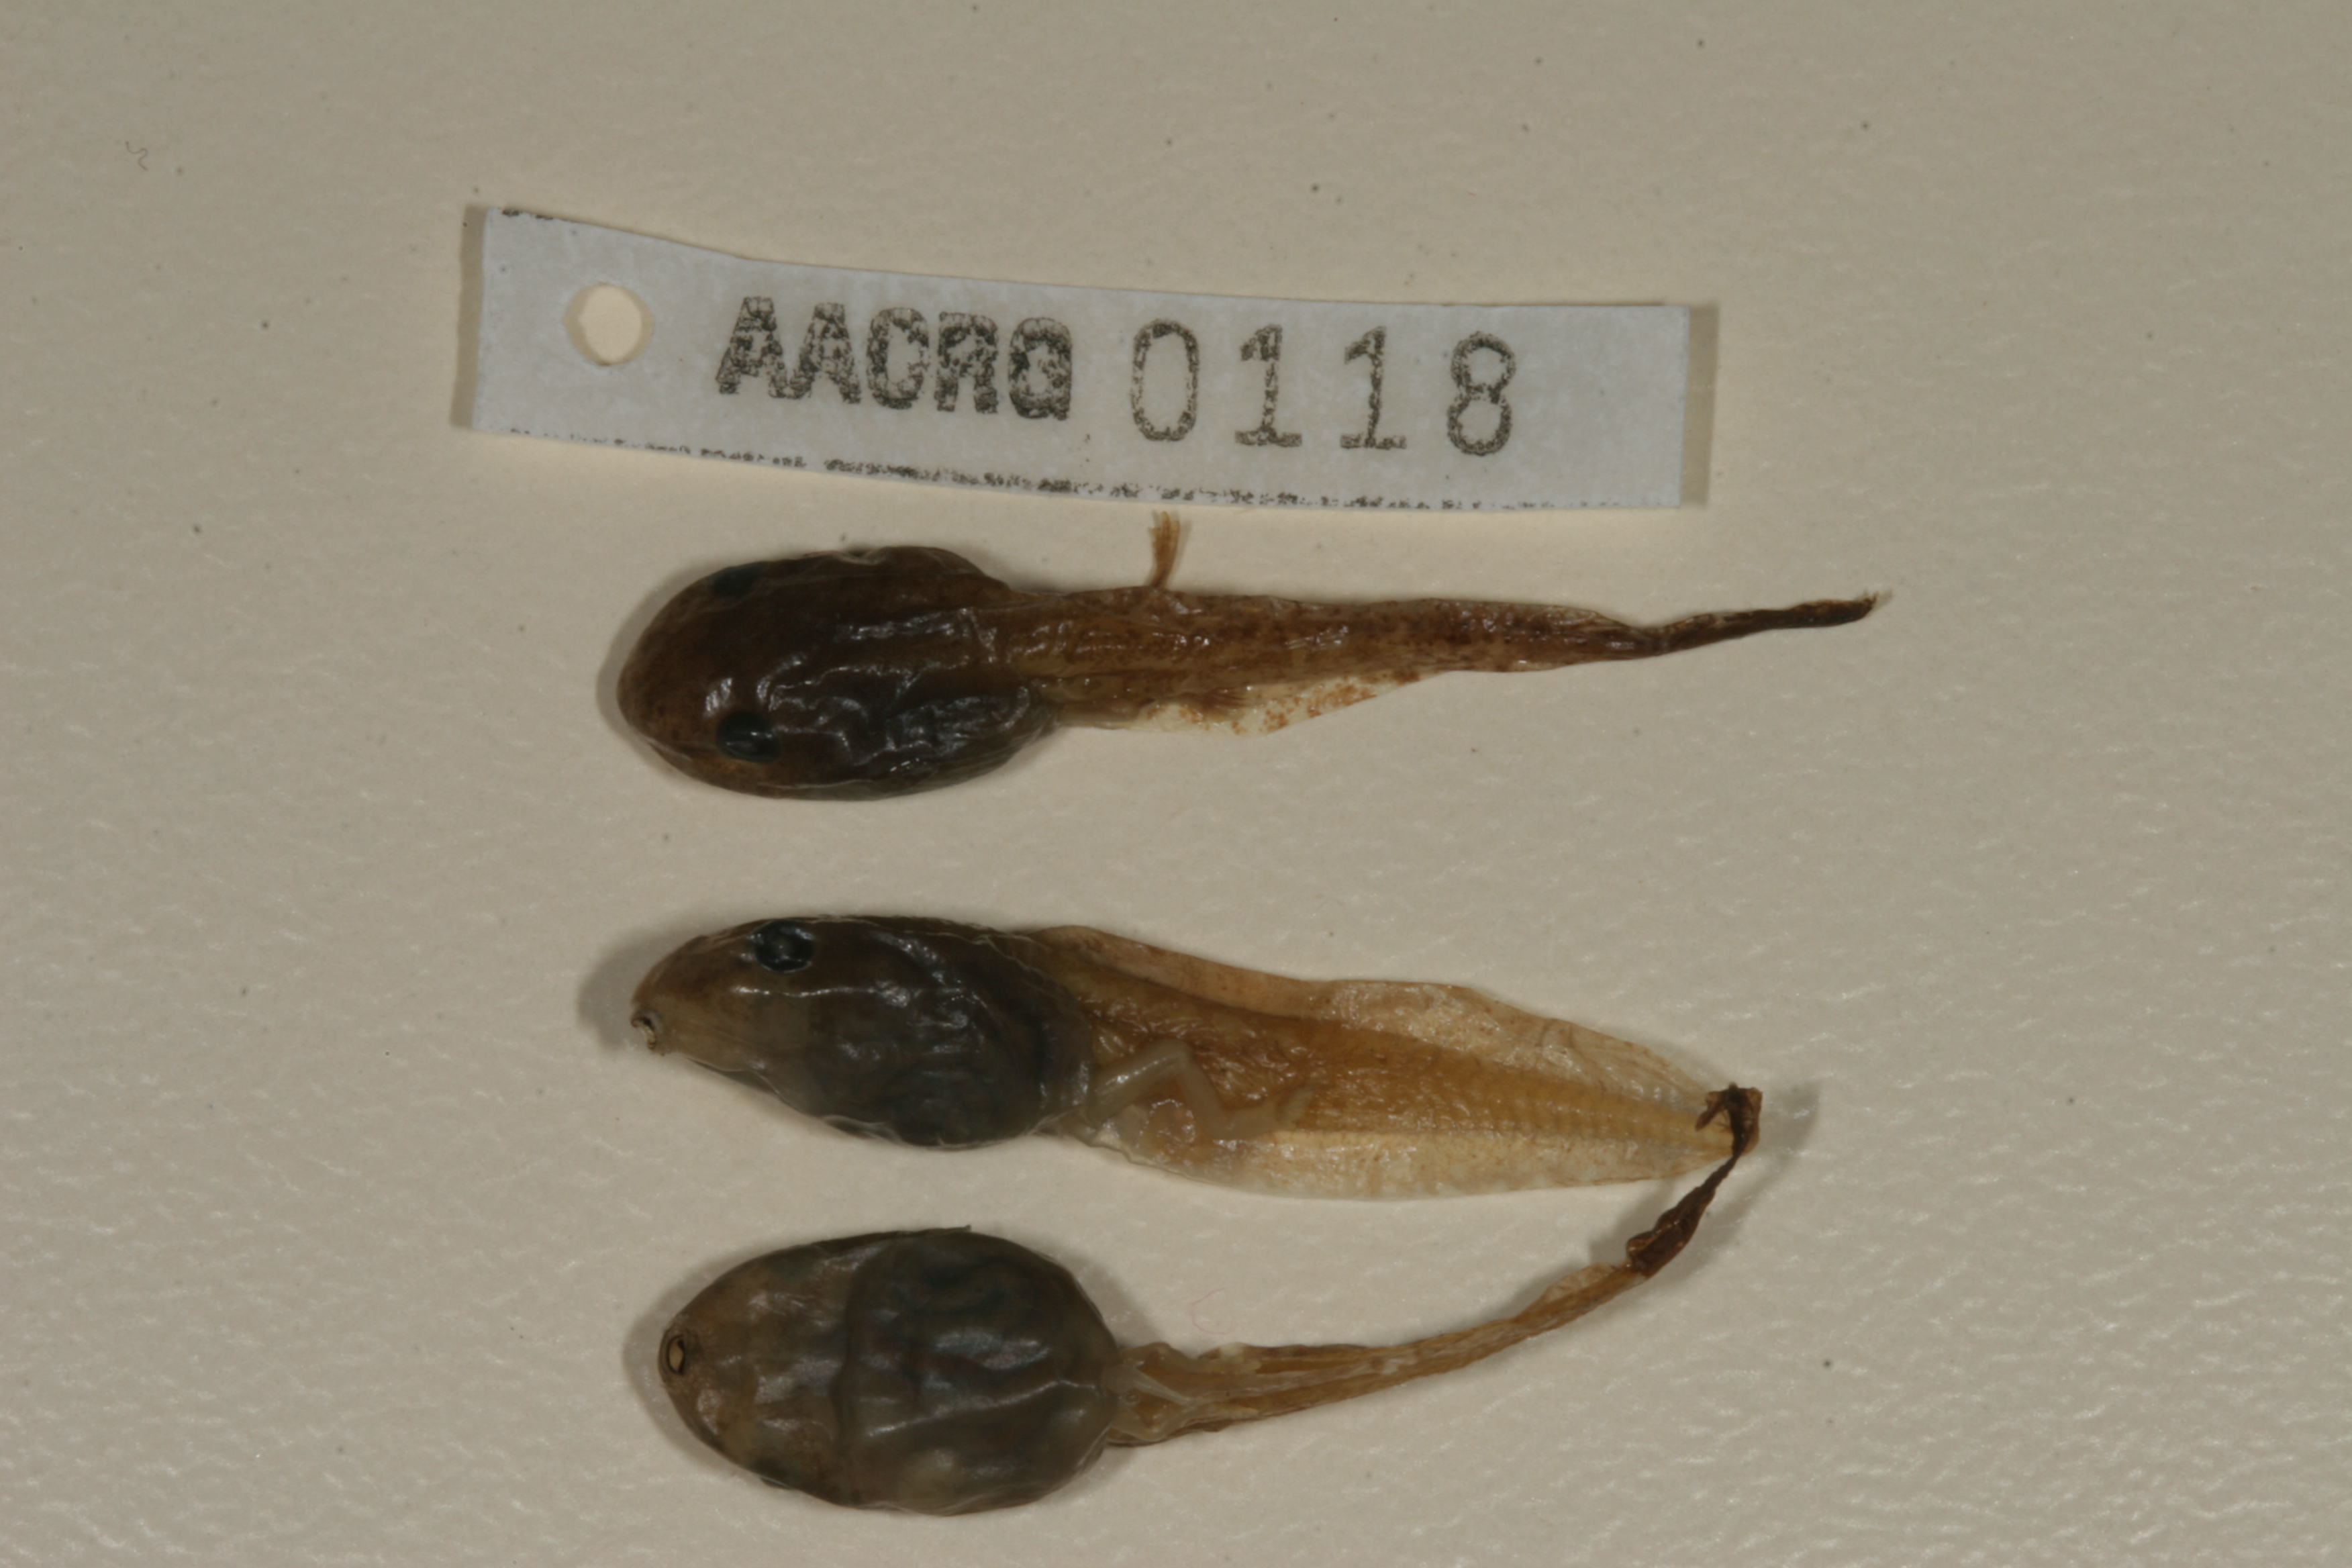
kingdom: Animalia
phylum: Chordata
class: Amphibia
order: Anura
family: Hyperoliidae
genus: Hyperolius
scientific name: Hyperolius marmoratus
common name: Painted reed frog
